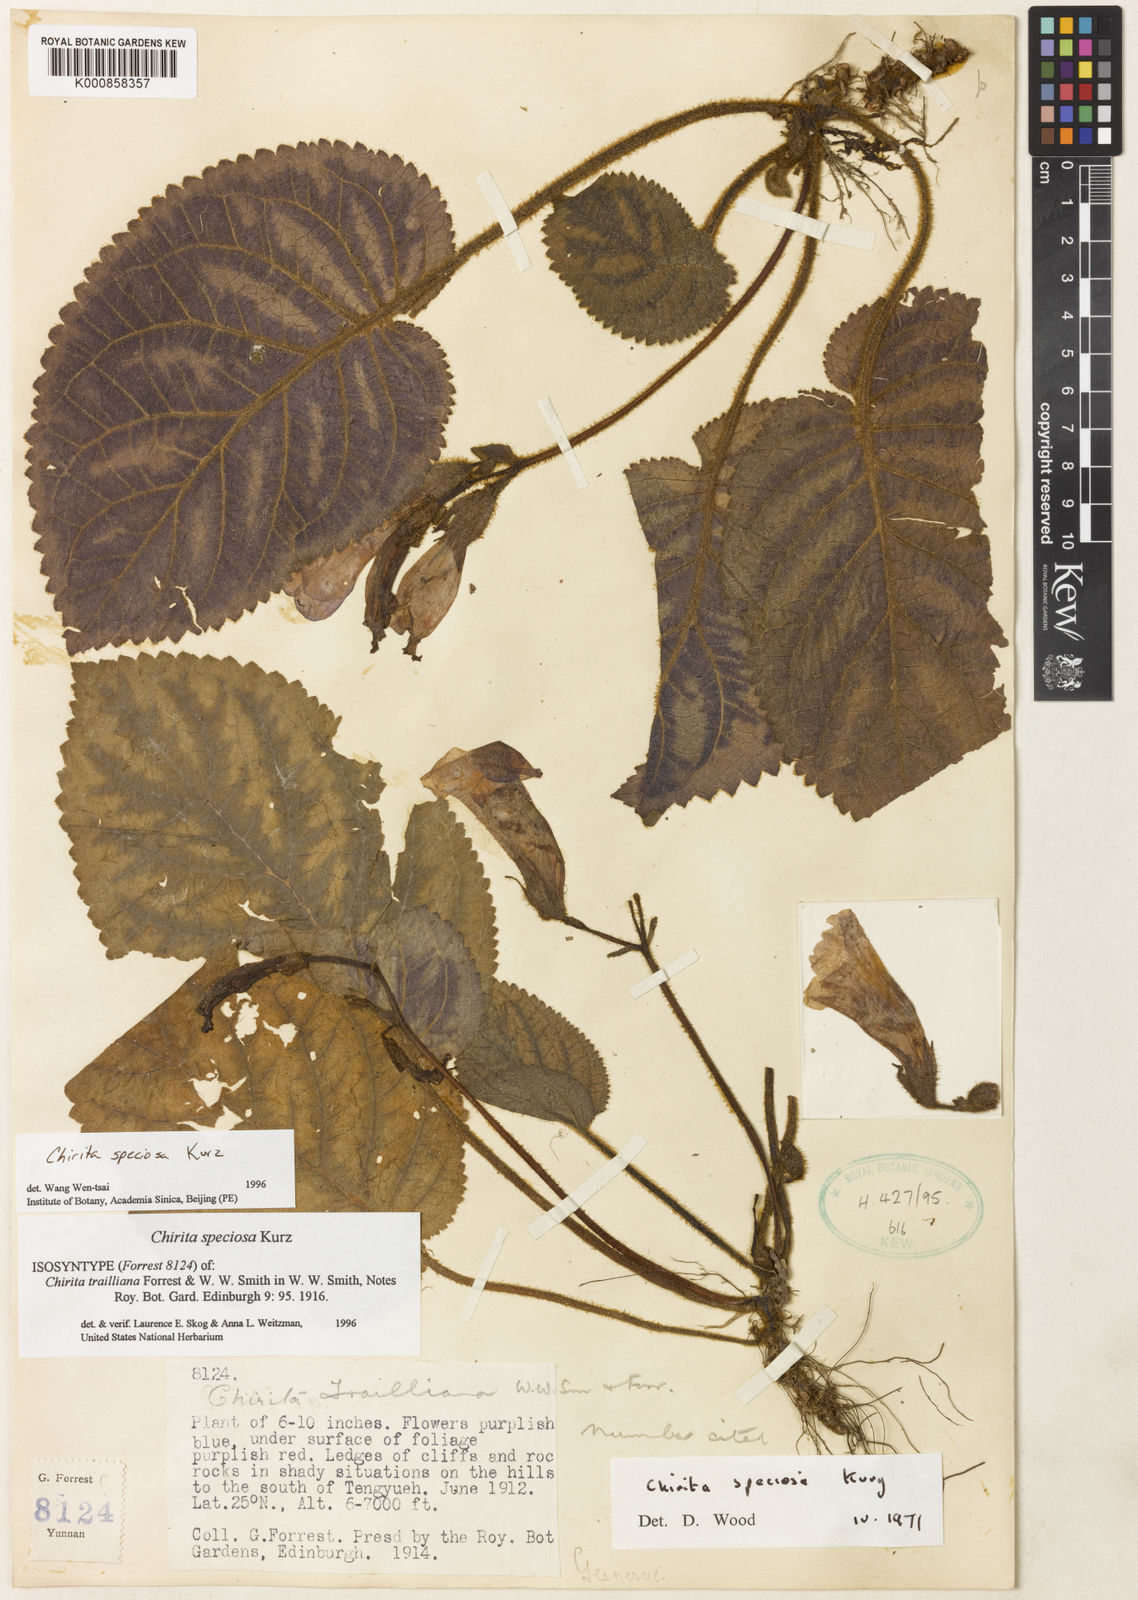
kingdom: Plantae
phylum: Tracheophyta
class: Magnoliopsida
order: Lamiales
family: Gesneriaceae
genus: Henckelia
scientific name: Henckelia speciosa
